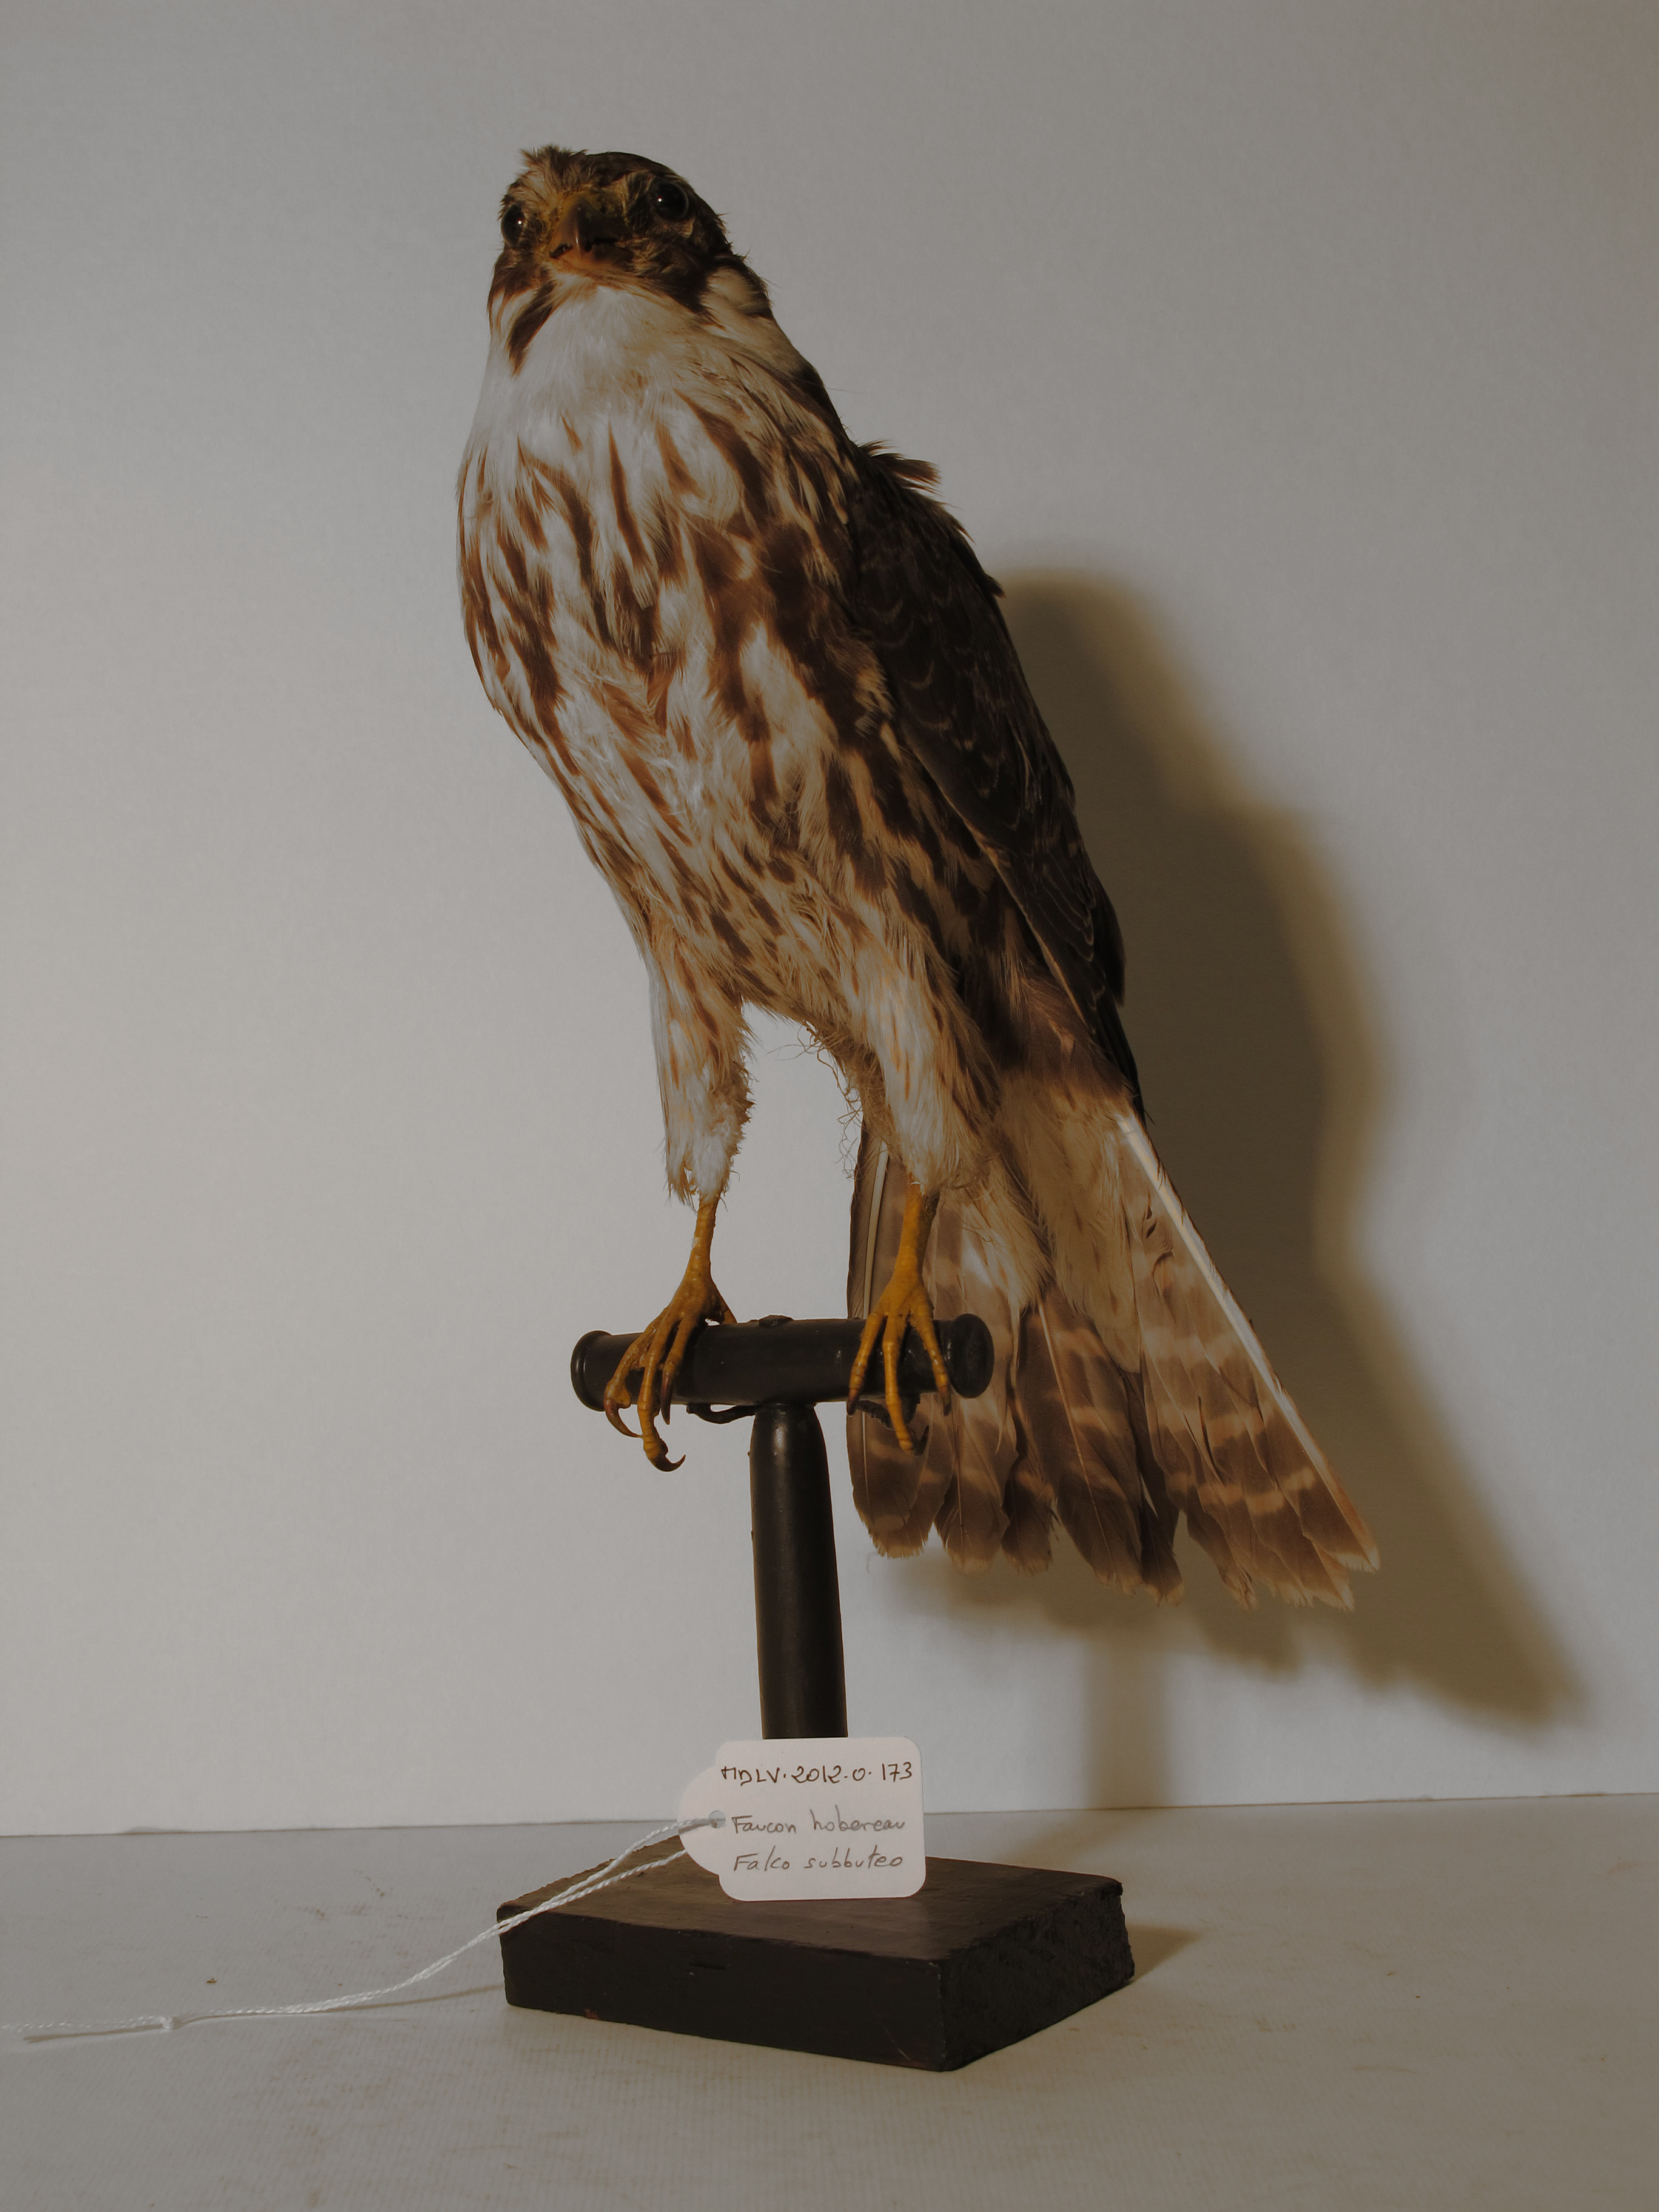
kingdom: Animalia
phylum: Chordata
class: Aves
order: Falconiformes
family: Falconidae
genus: Falco
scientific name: Falco subbuteo
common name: Eurasian Hobby
